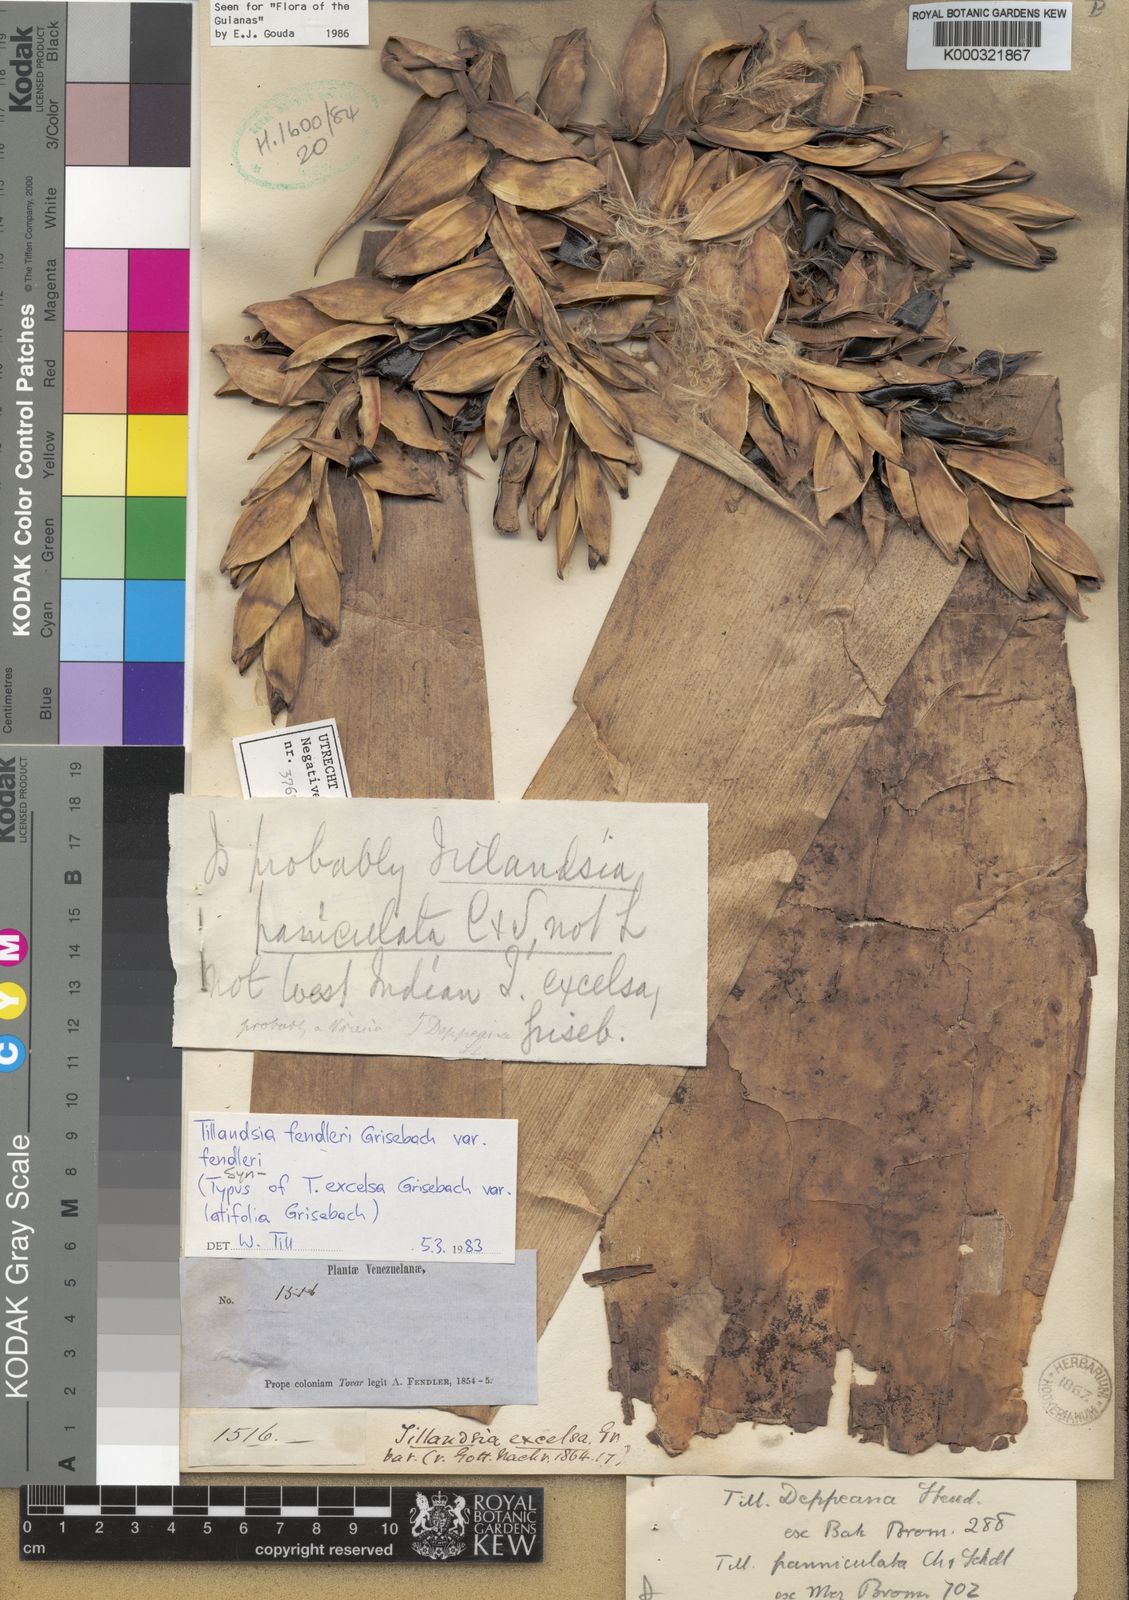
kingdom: Plantae
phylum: Tracheophyta
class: Liliopsida
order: Poales
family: Bromeliaceae
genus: Tillandsia
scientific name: Tillandsia fendleri
